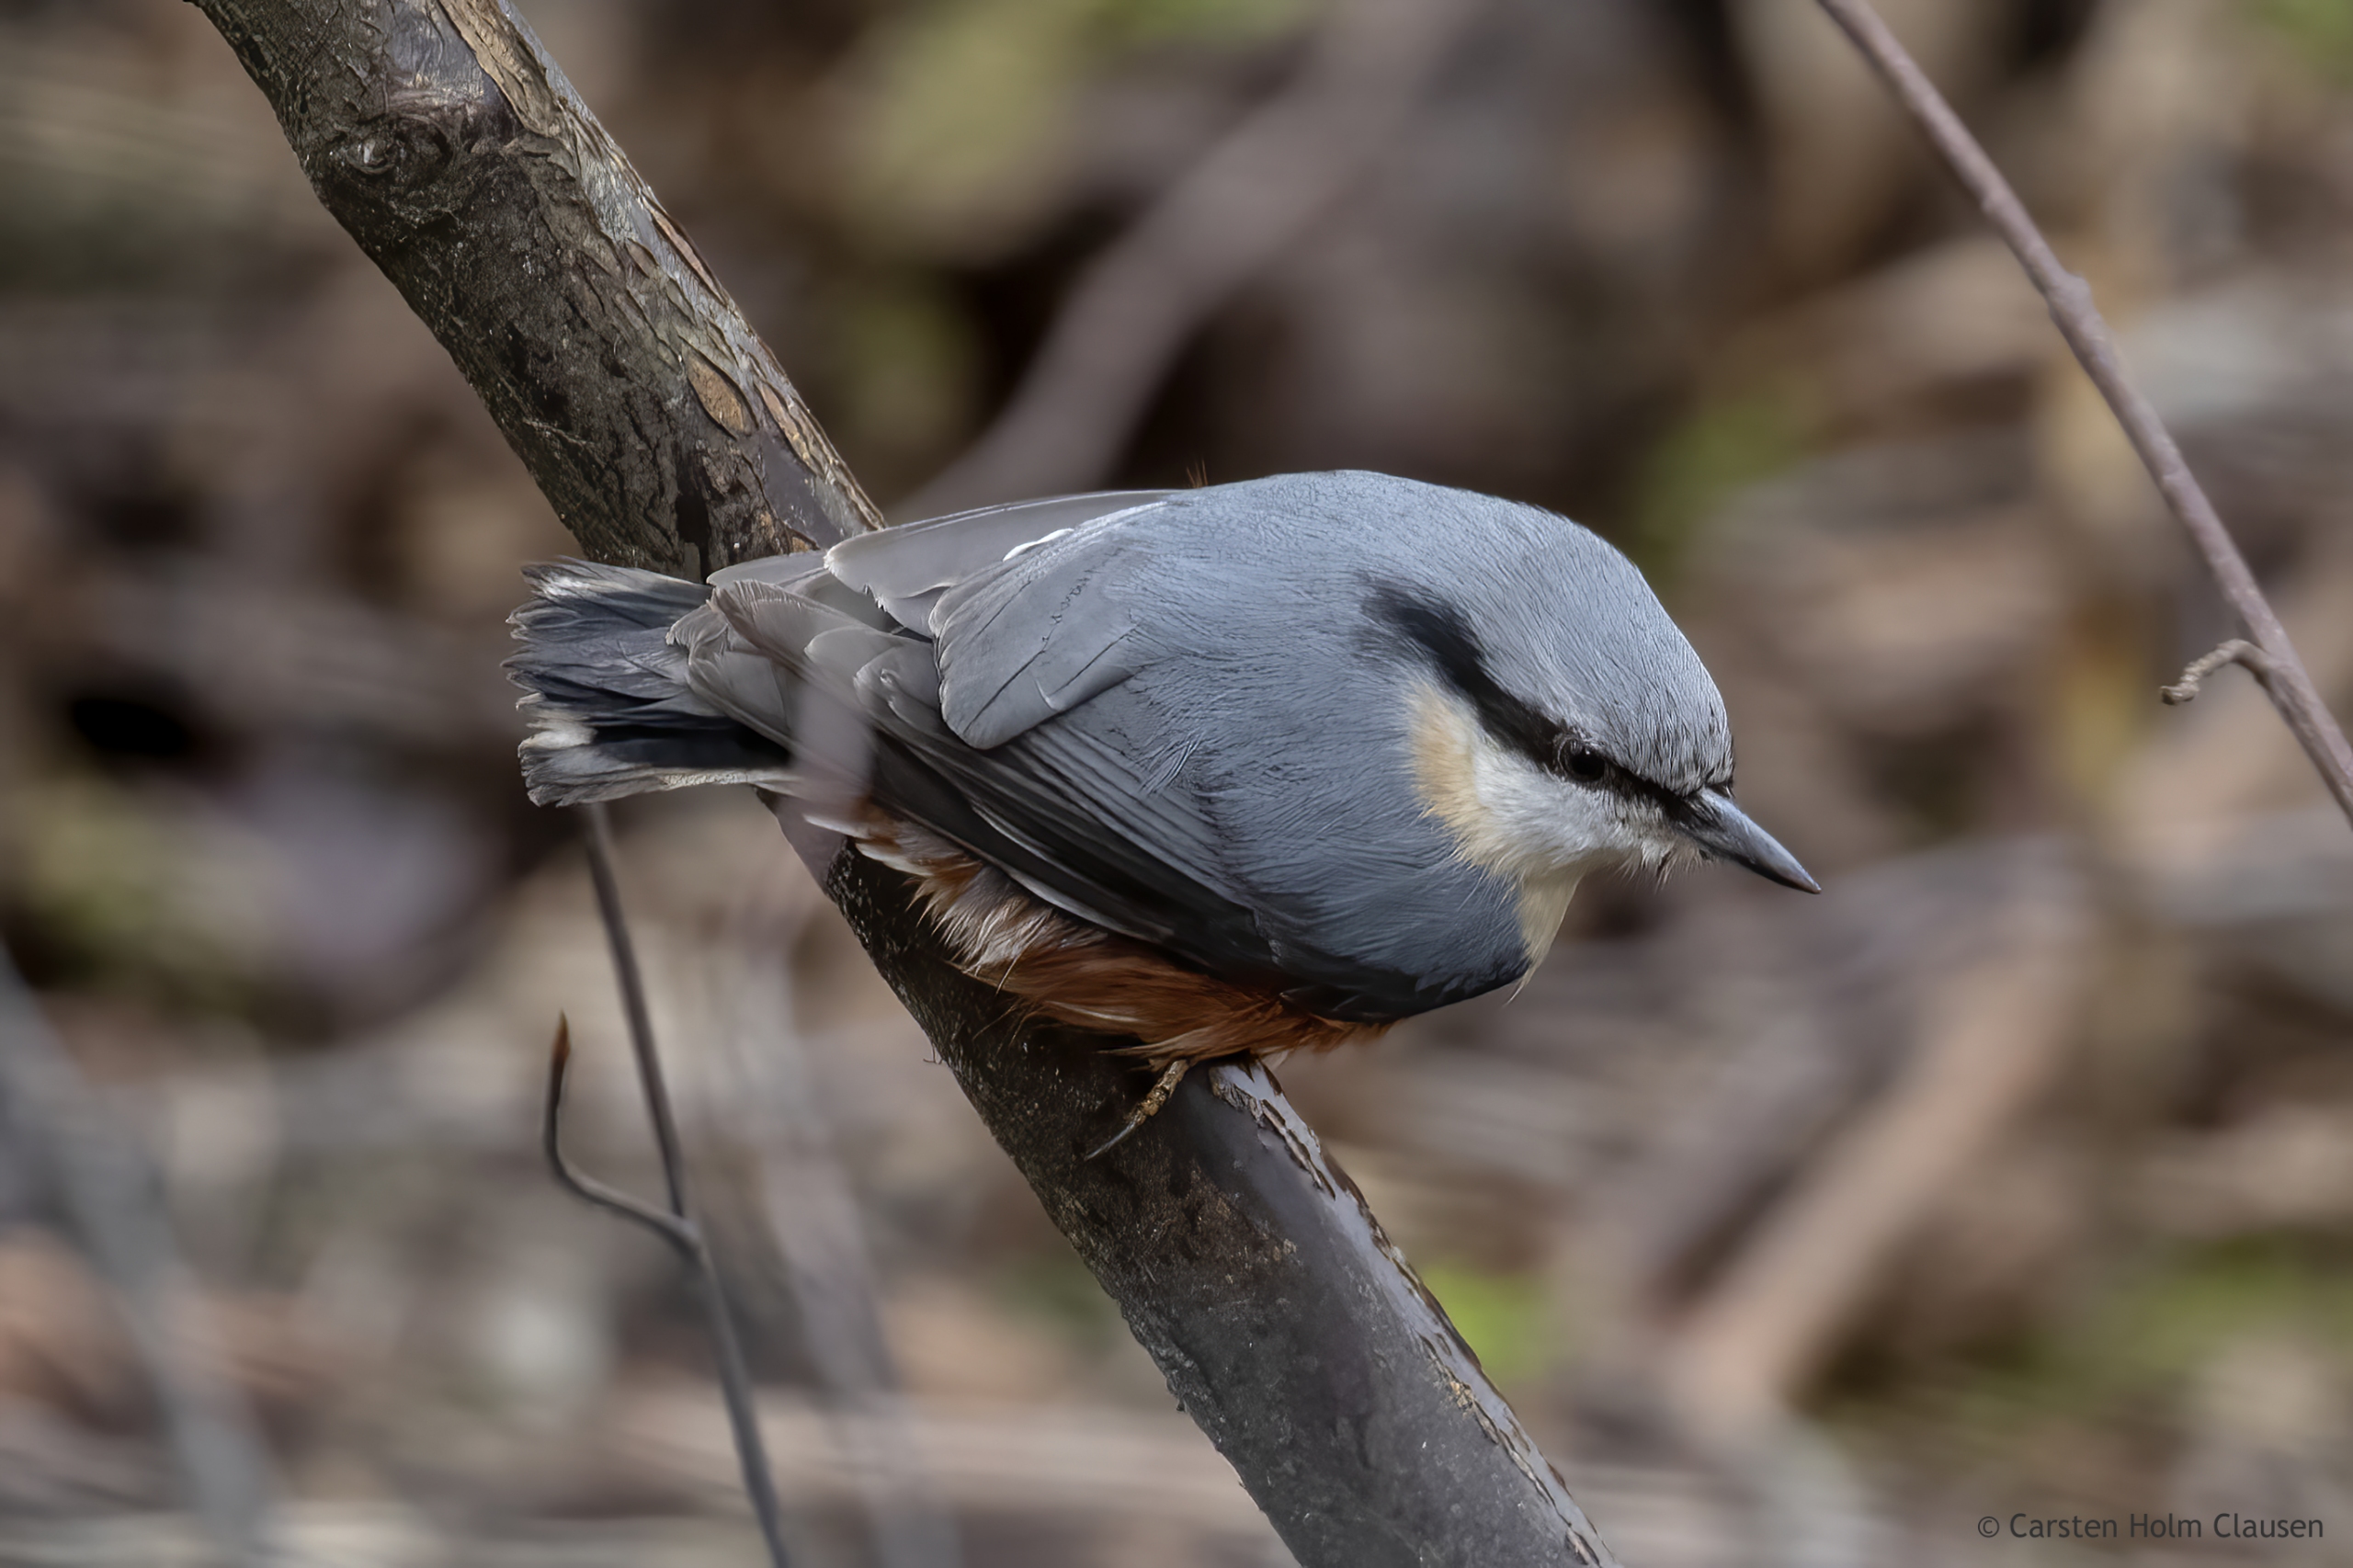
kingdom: Animalia
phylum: Chordata
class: Aves
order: Passeriformes
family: Sittidae
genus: Sitta
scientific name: Sitta europaea
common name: Spætmejse
